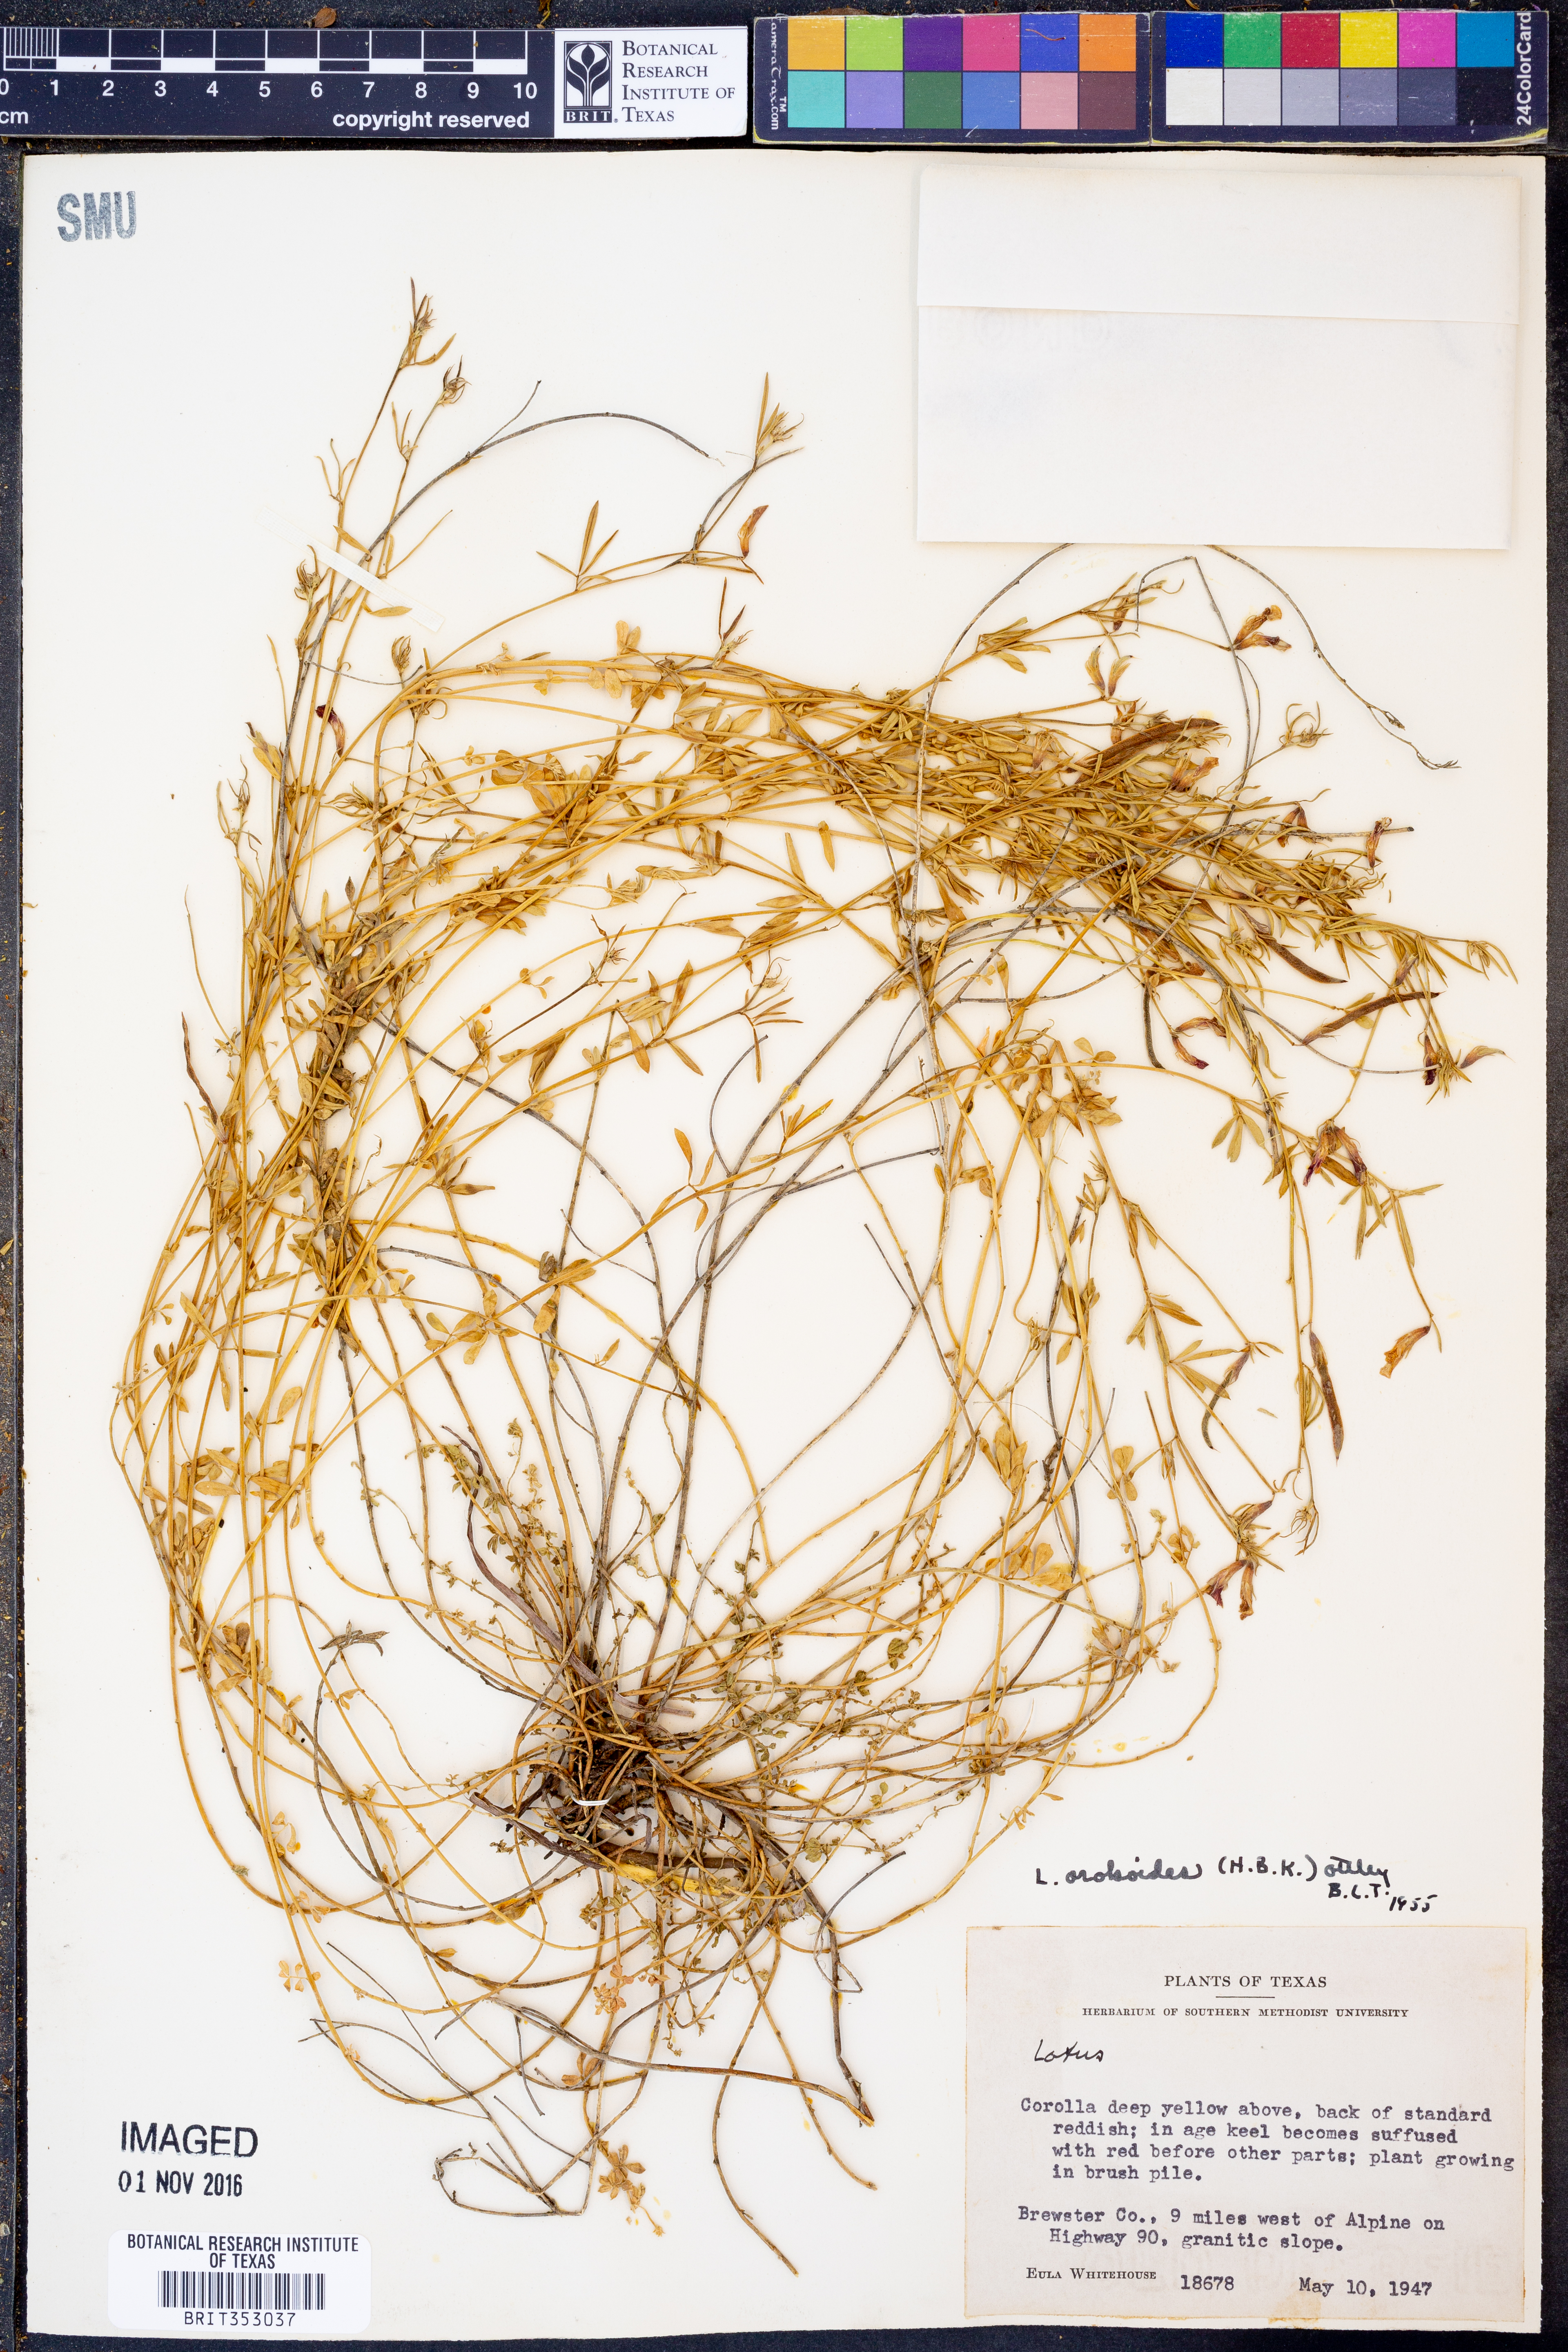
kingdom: Plantae
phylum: Tracheophyta
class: Magnoliopsida
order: Fabales
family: Fabaceae
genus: Acmispon
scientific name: Acmispon oroboides
